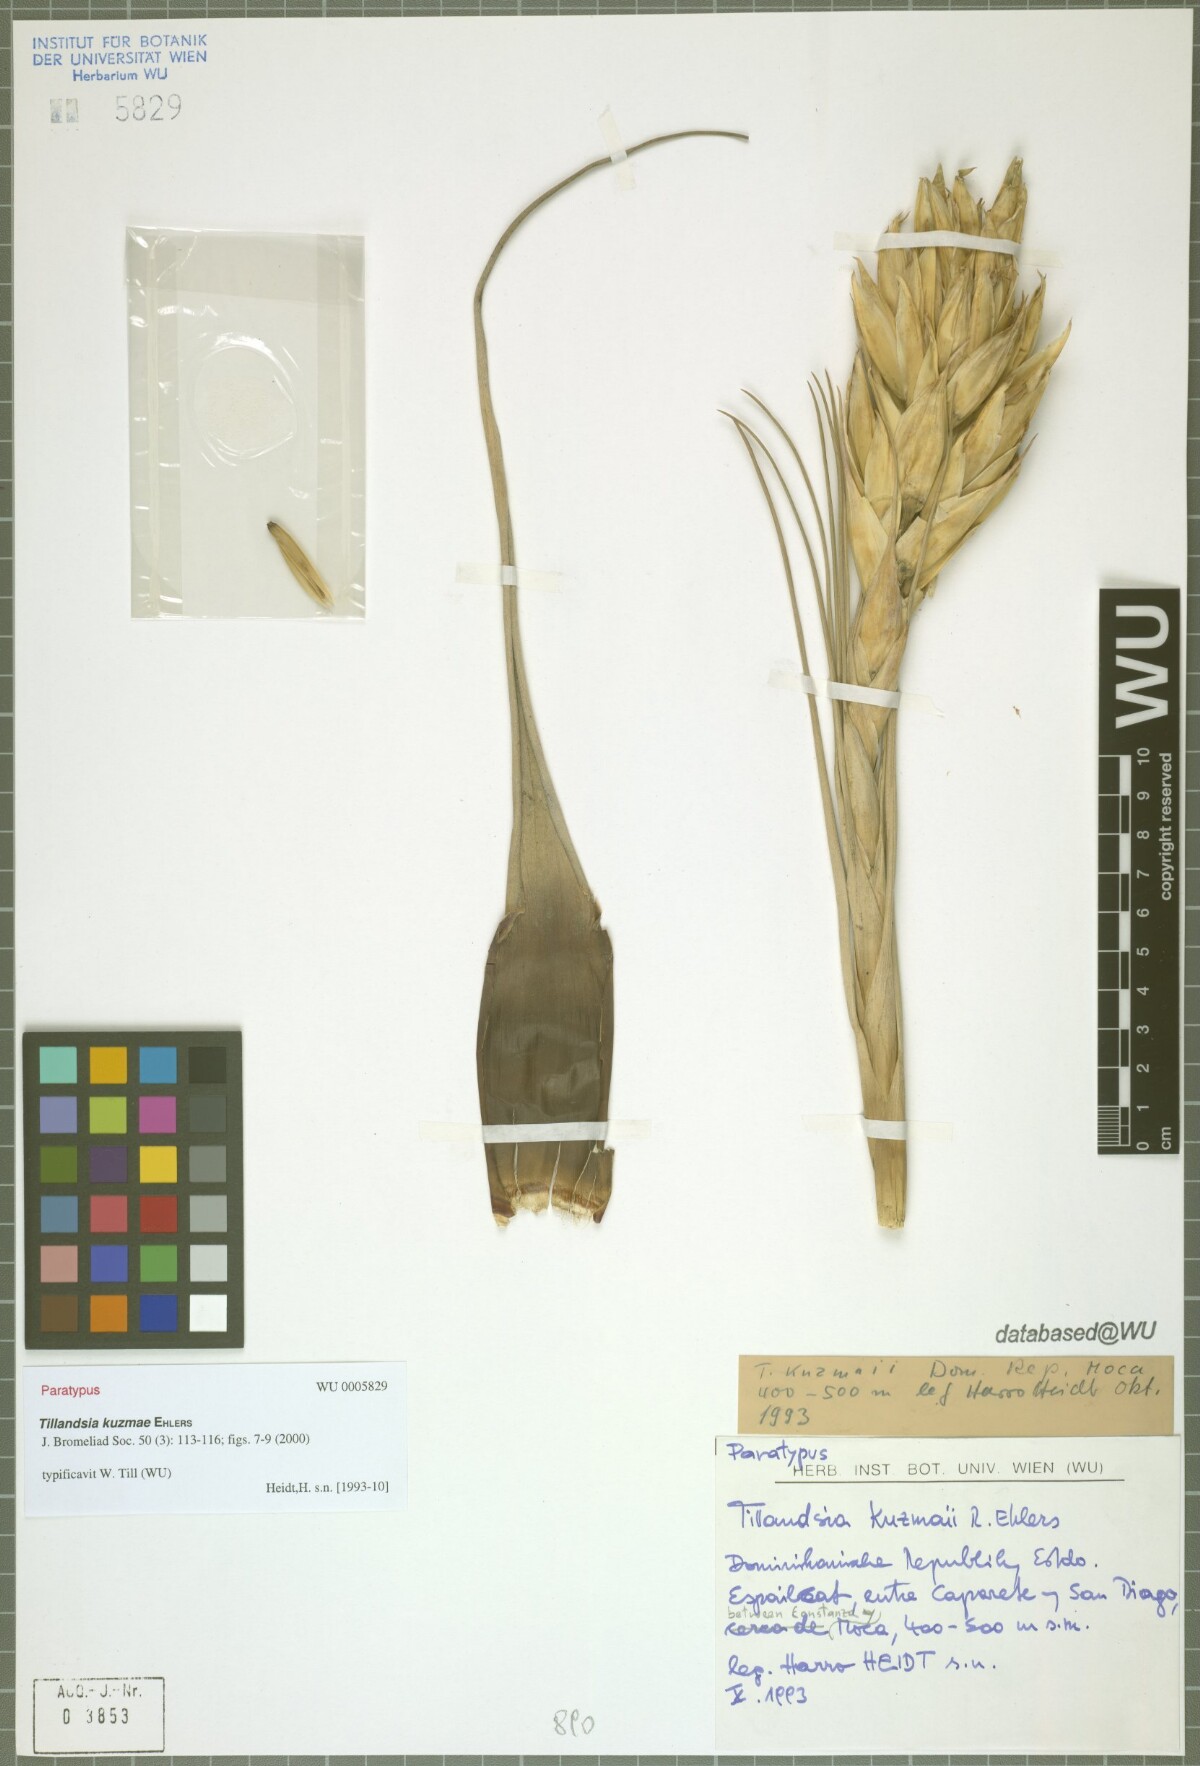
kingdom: Plantae
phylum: Tracheophyta
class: Liliopsida
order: Poales
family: Bromeliaceae
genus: Tillandsia
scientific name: Tillandsia kuzmae
